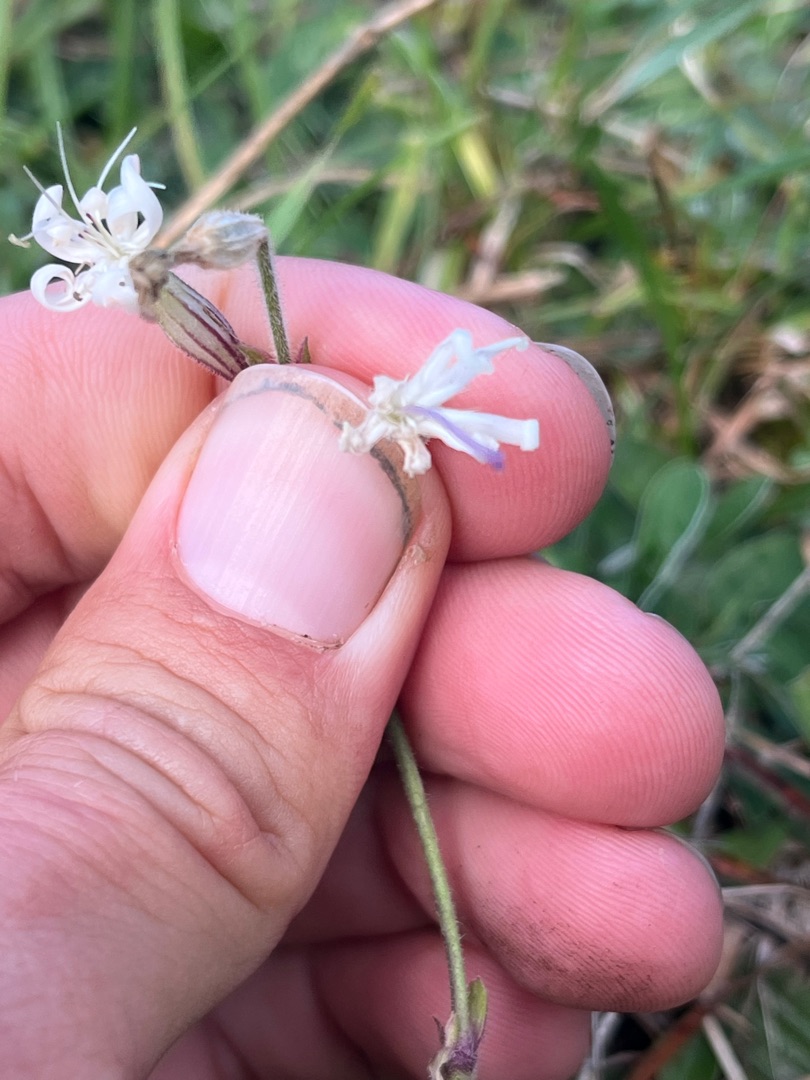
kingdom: Plantae
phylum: Tracheophyta
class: Magnoliopsida
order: Caryophyllales
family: Caryophyllaceae
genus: Silene
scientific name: Silene nutans
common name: Nikkende limurt
